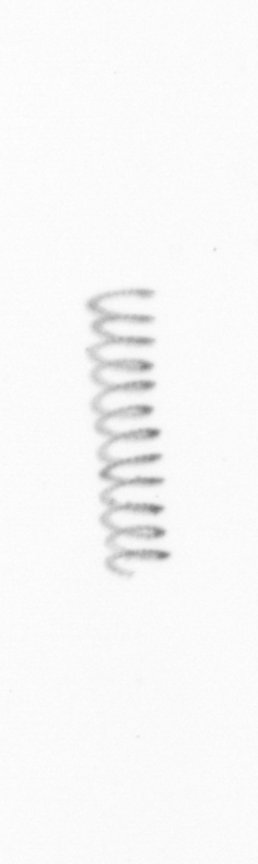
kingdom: Chromista
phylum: Ochrophyta
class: Bacillariophyceae
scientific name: Bacillariophyceae
